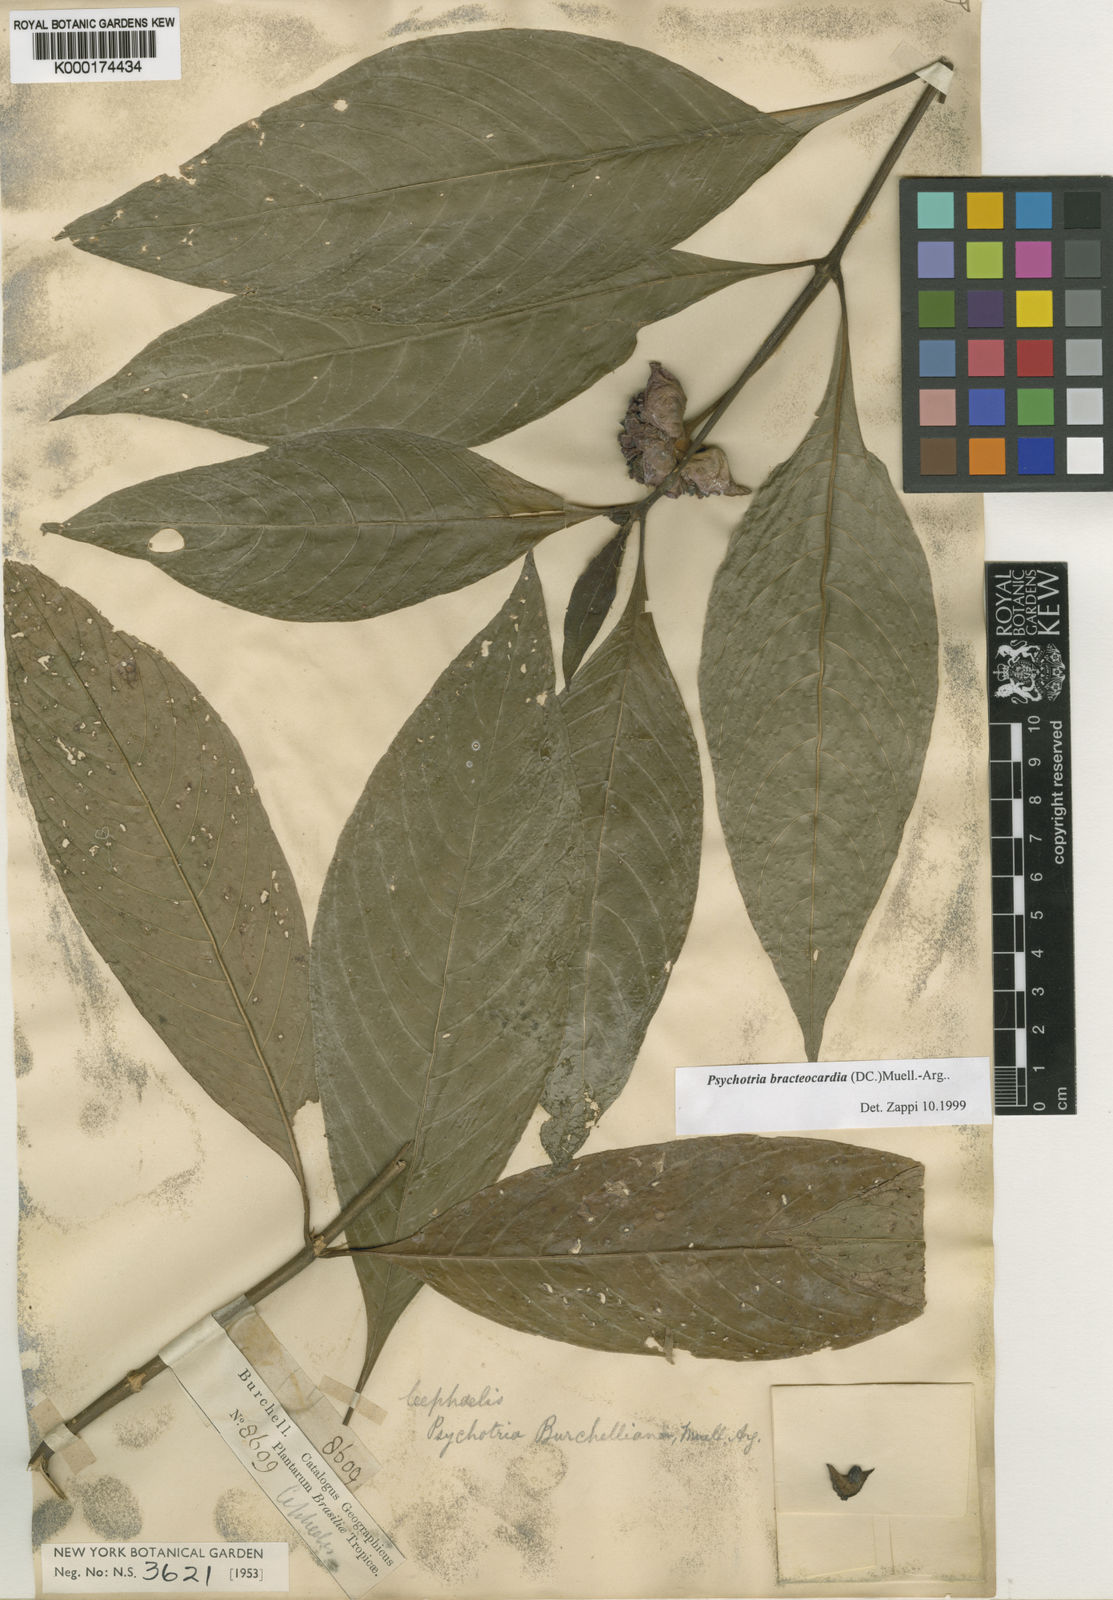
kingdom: Plantae
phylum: Tracheophyta
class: Magnoliopsida
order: Gentianales
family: Rubiaceae
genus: Psychotria
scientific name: Psychotria
